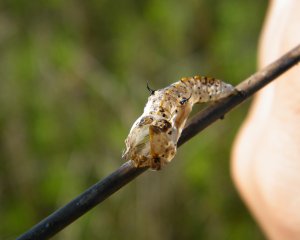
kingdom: Animalia
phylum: Arthropoda
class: Insecta
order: Lepidoptera
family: Pieridae
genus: Ascia
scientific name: Ascia monuste
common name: Great Southern White
